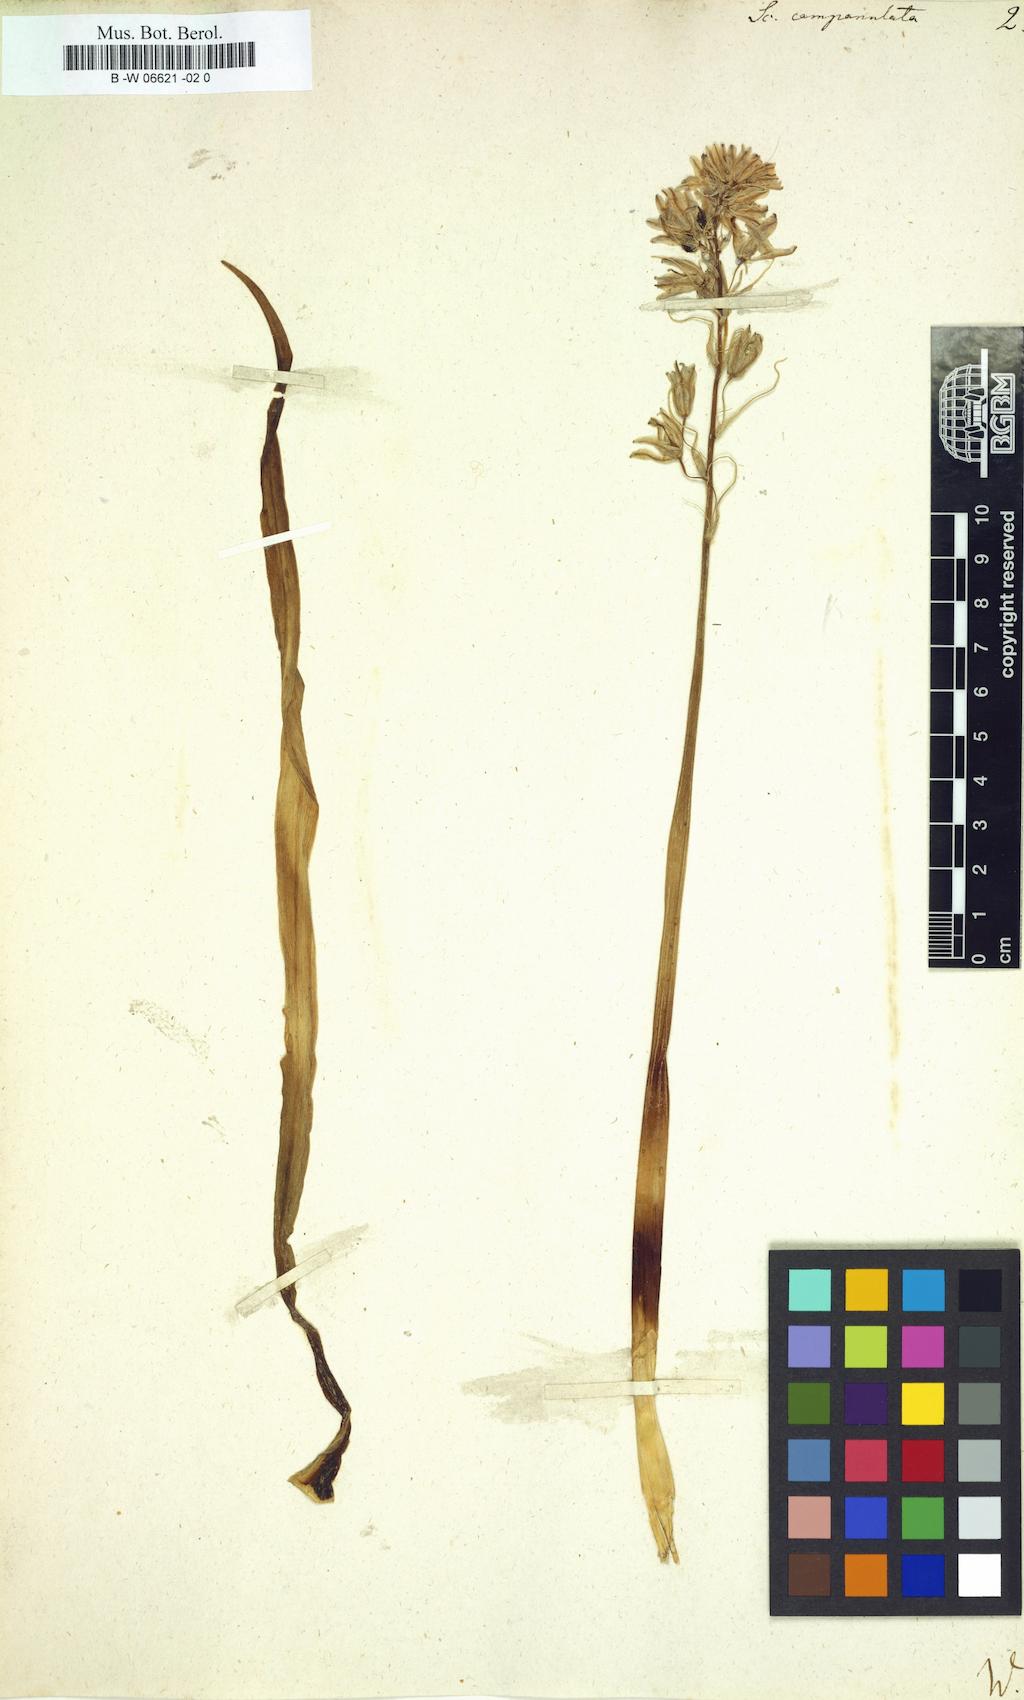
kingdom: Plantae
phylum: Tracheophyta
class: Liliopsida
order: Asparagales
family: Asparagaceae
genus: Hyacinthoides
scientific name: Hyacinthoides hispanica
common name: Spanish bluebell
